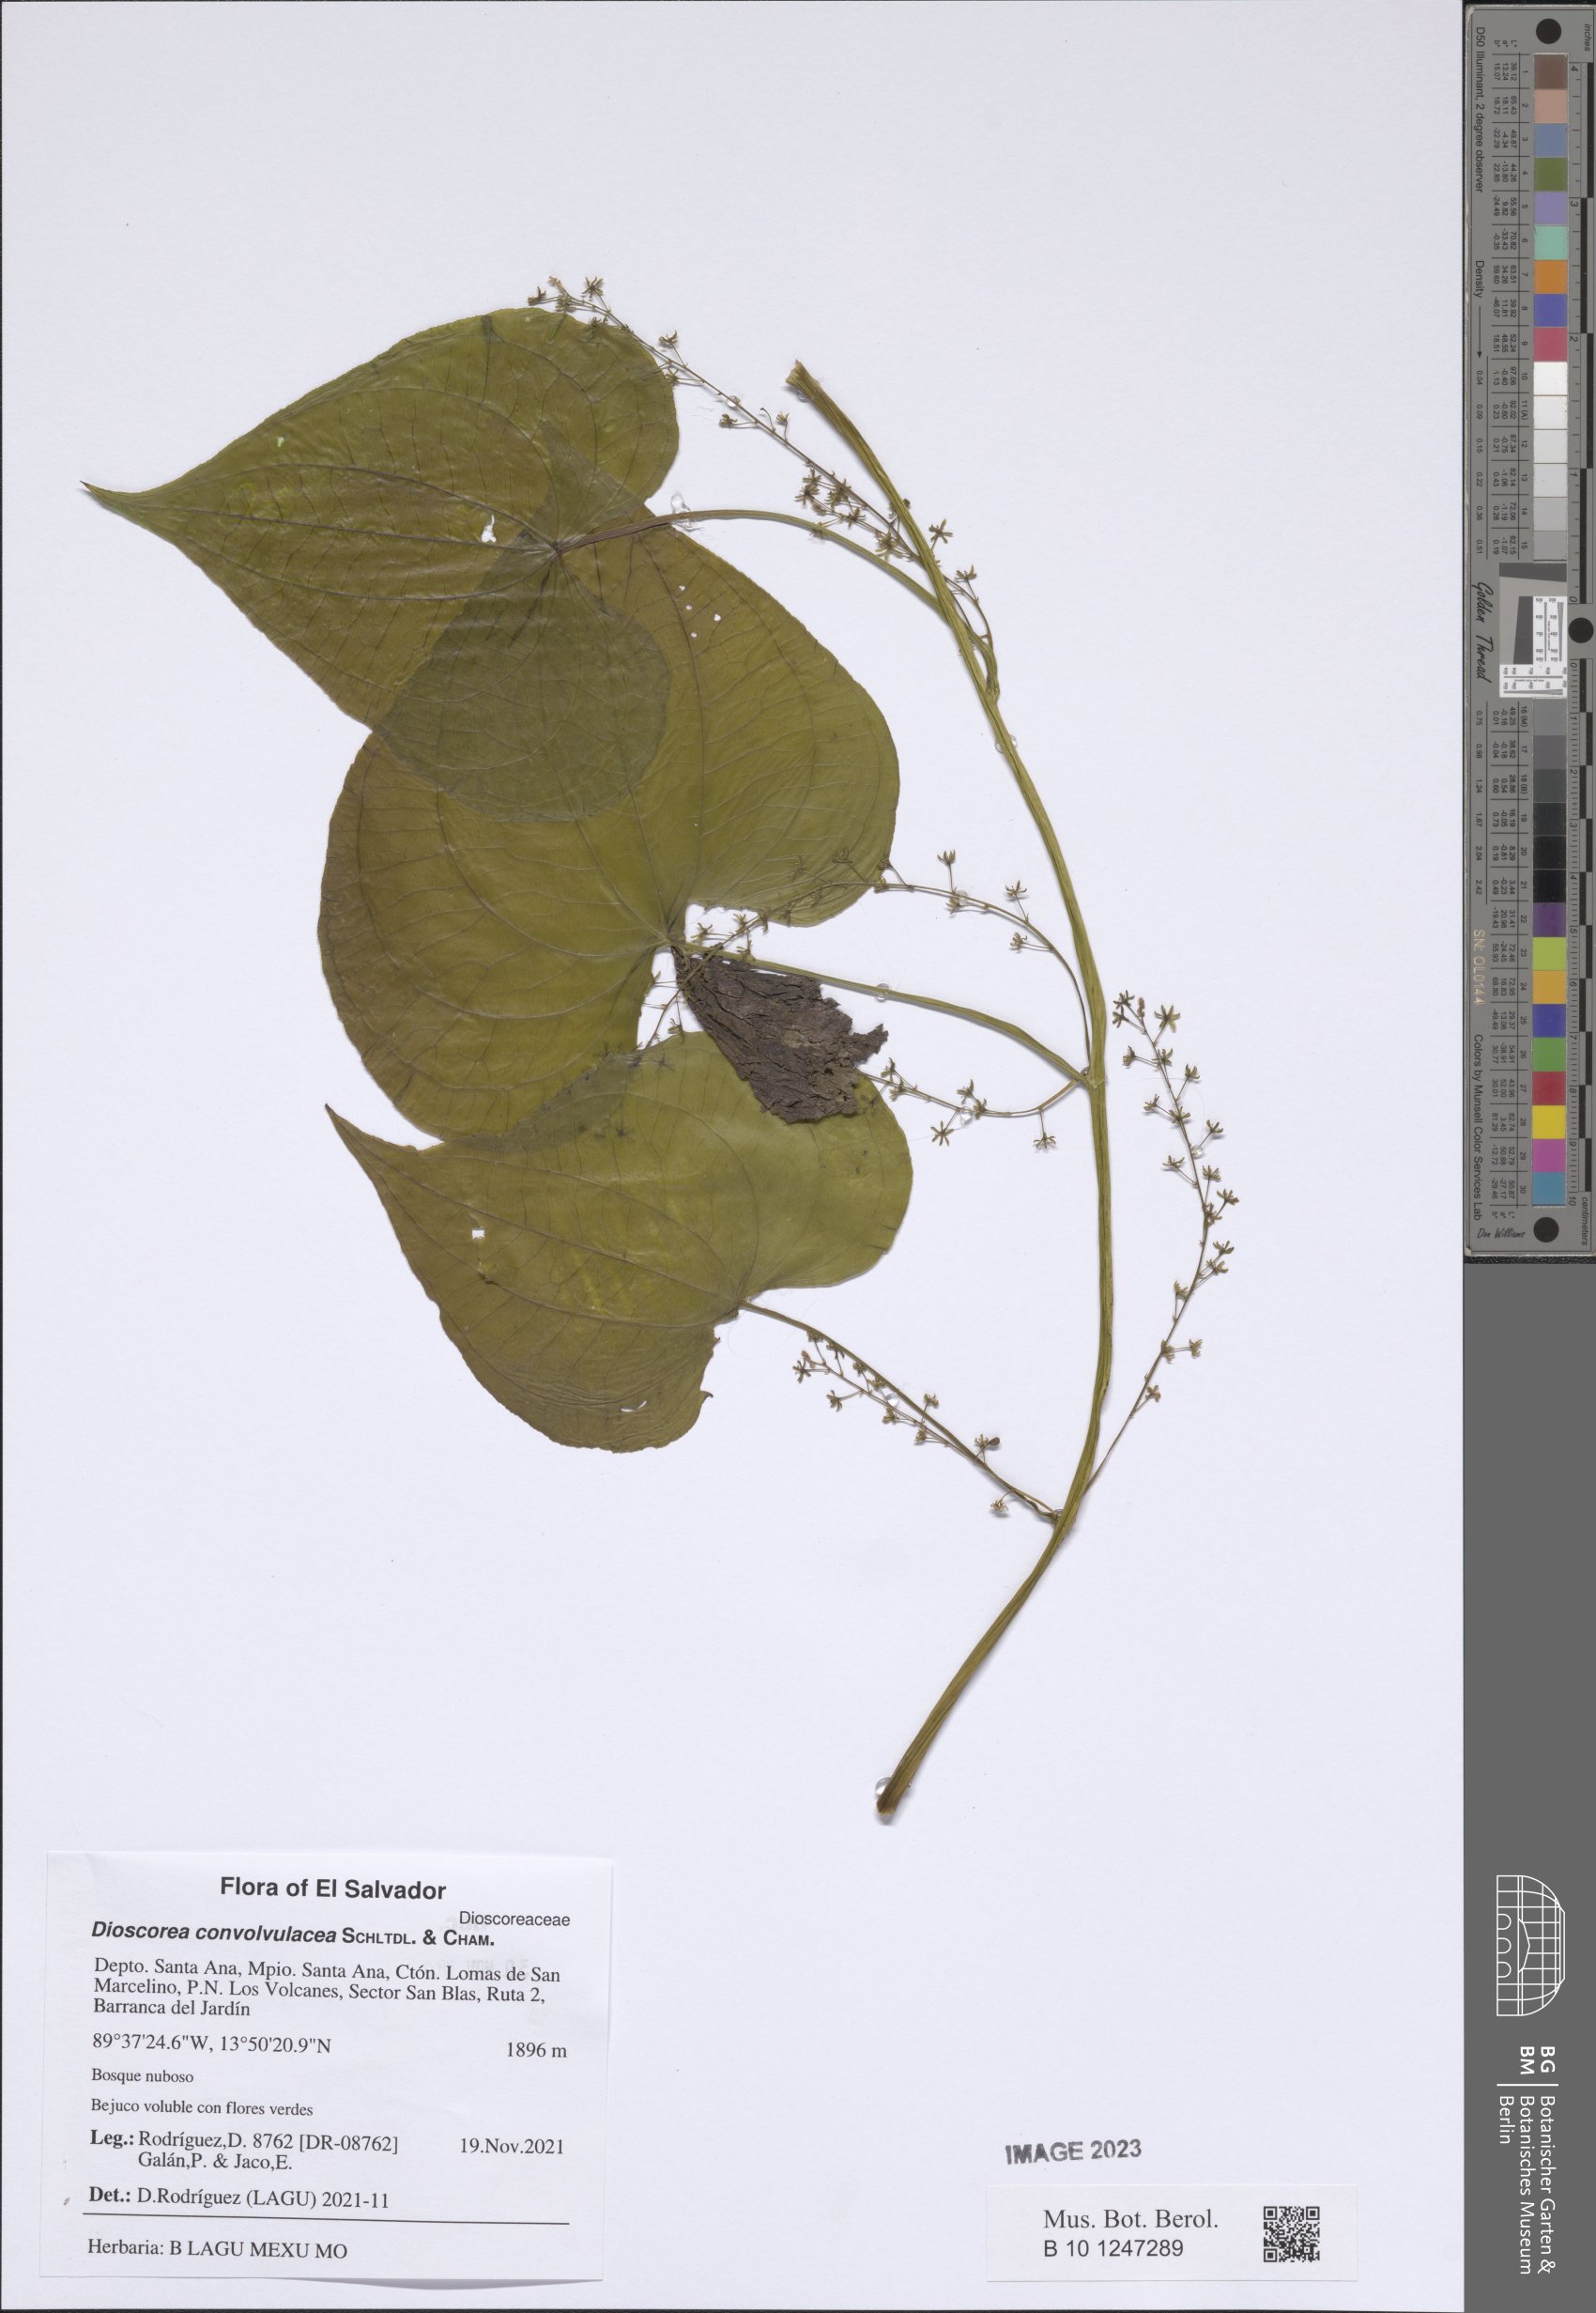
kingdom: Plantae
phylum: Tracheophyta
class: Liliopsida
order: Dioscoreales
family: Dioscoreaceae
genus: Dioscorea
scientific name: Dioscorea convolvulacea
